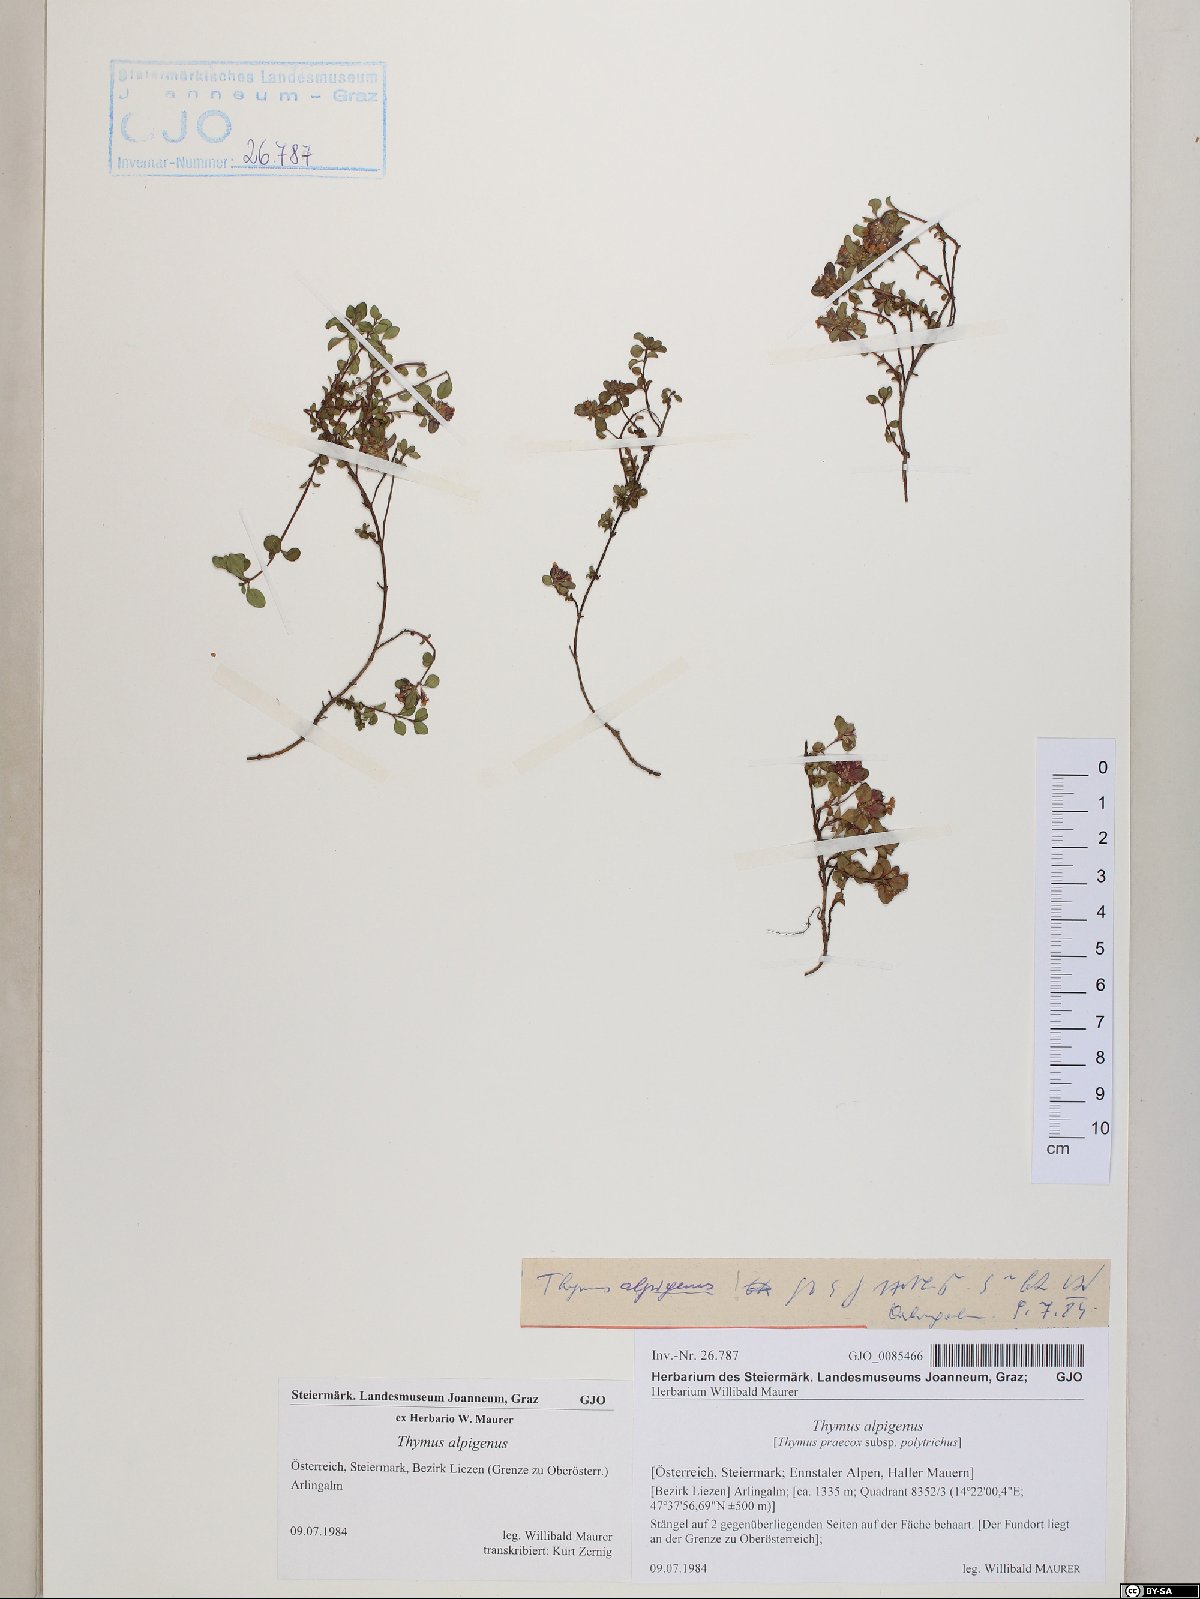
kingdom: Plantae
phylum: Tracheophyta
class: Magnoliopsida
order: Lamiales
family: Lamiaceae
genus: Thymus
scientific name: Thymus praecox
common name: Wild thyme
